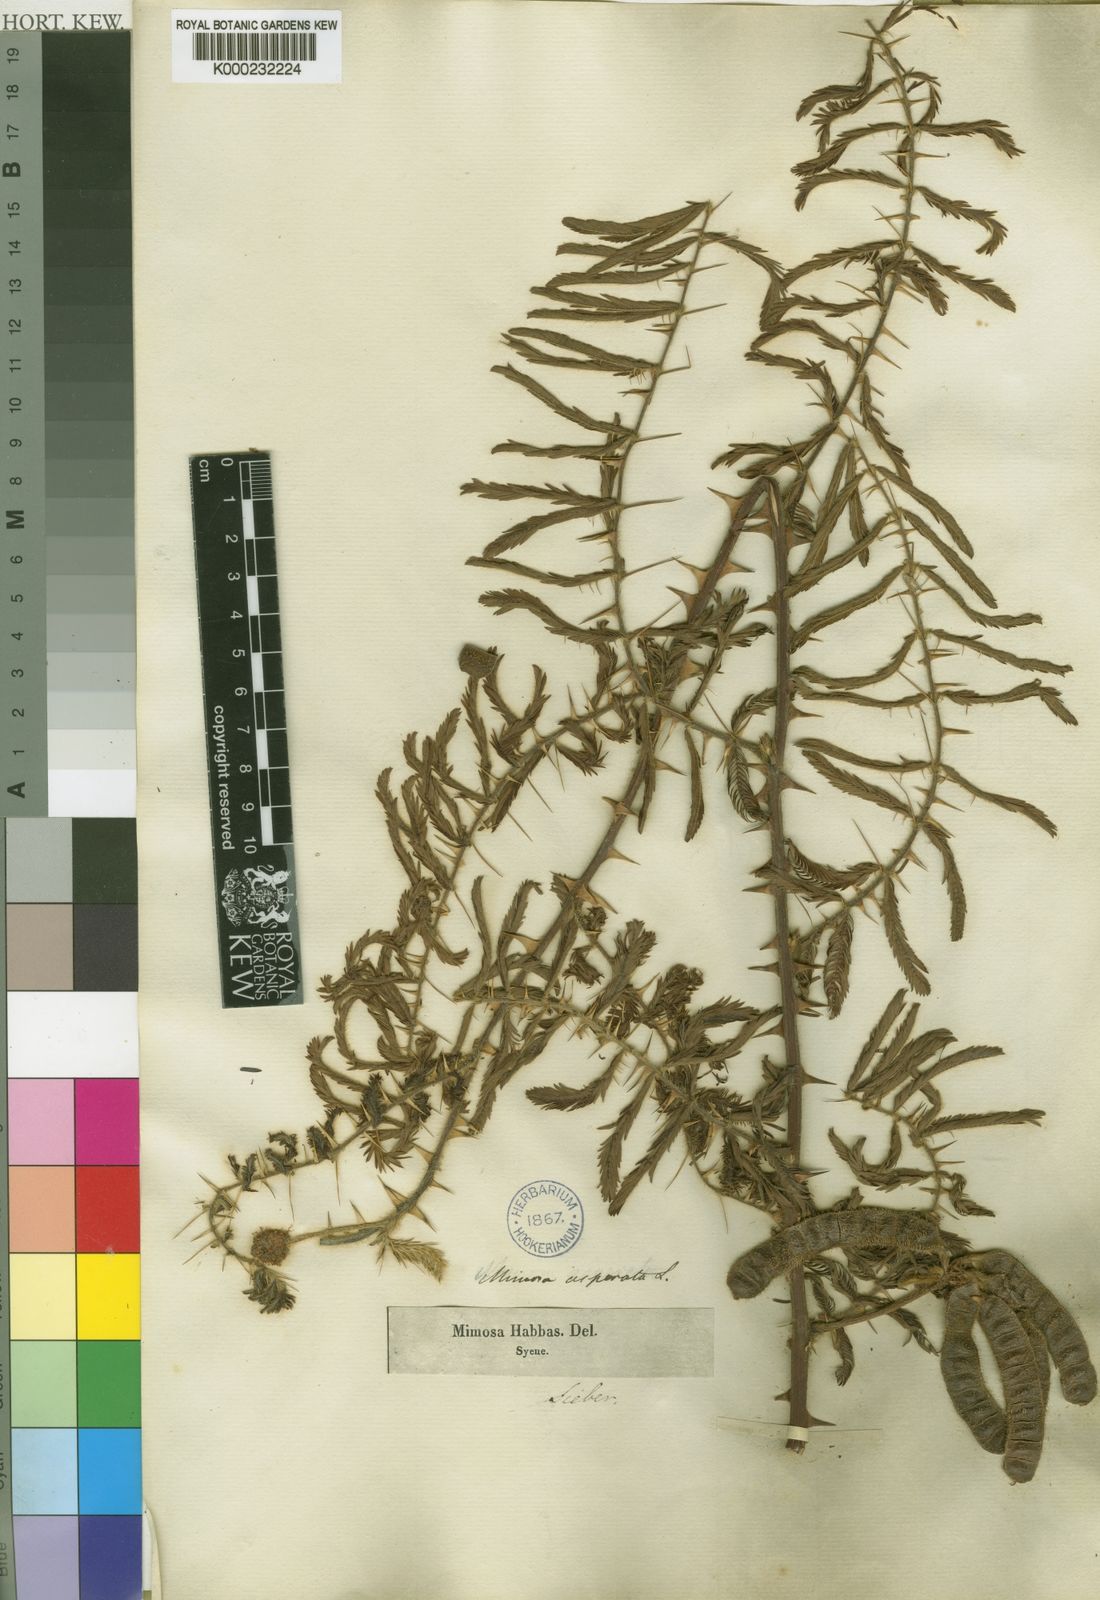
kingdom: Plantae
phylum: Tracheophyta
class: Magnoliopsida
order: Fabales
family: Fabaceae
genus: Mimosa
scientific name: Mimosa pigra
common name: Black mimosa
